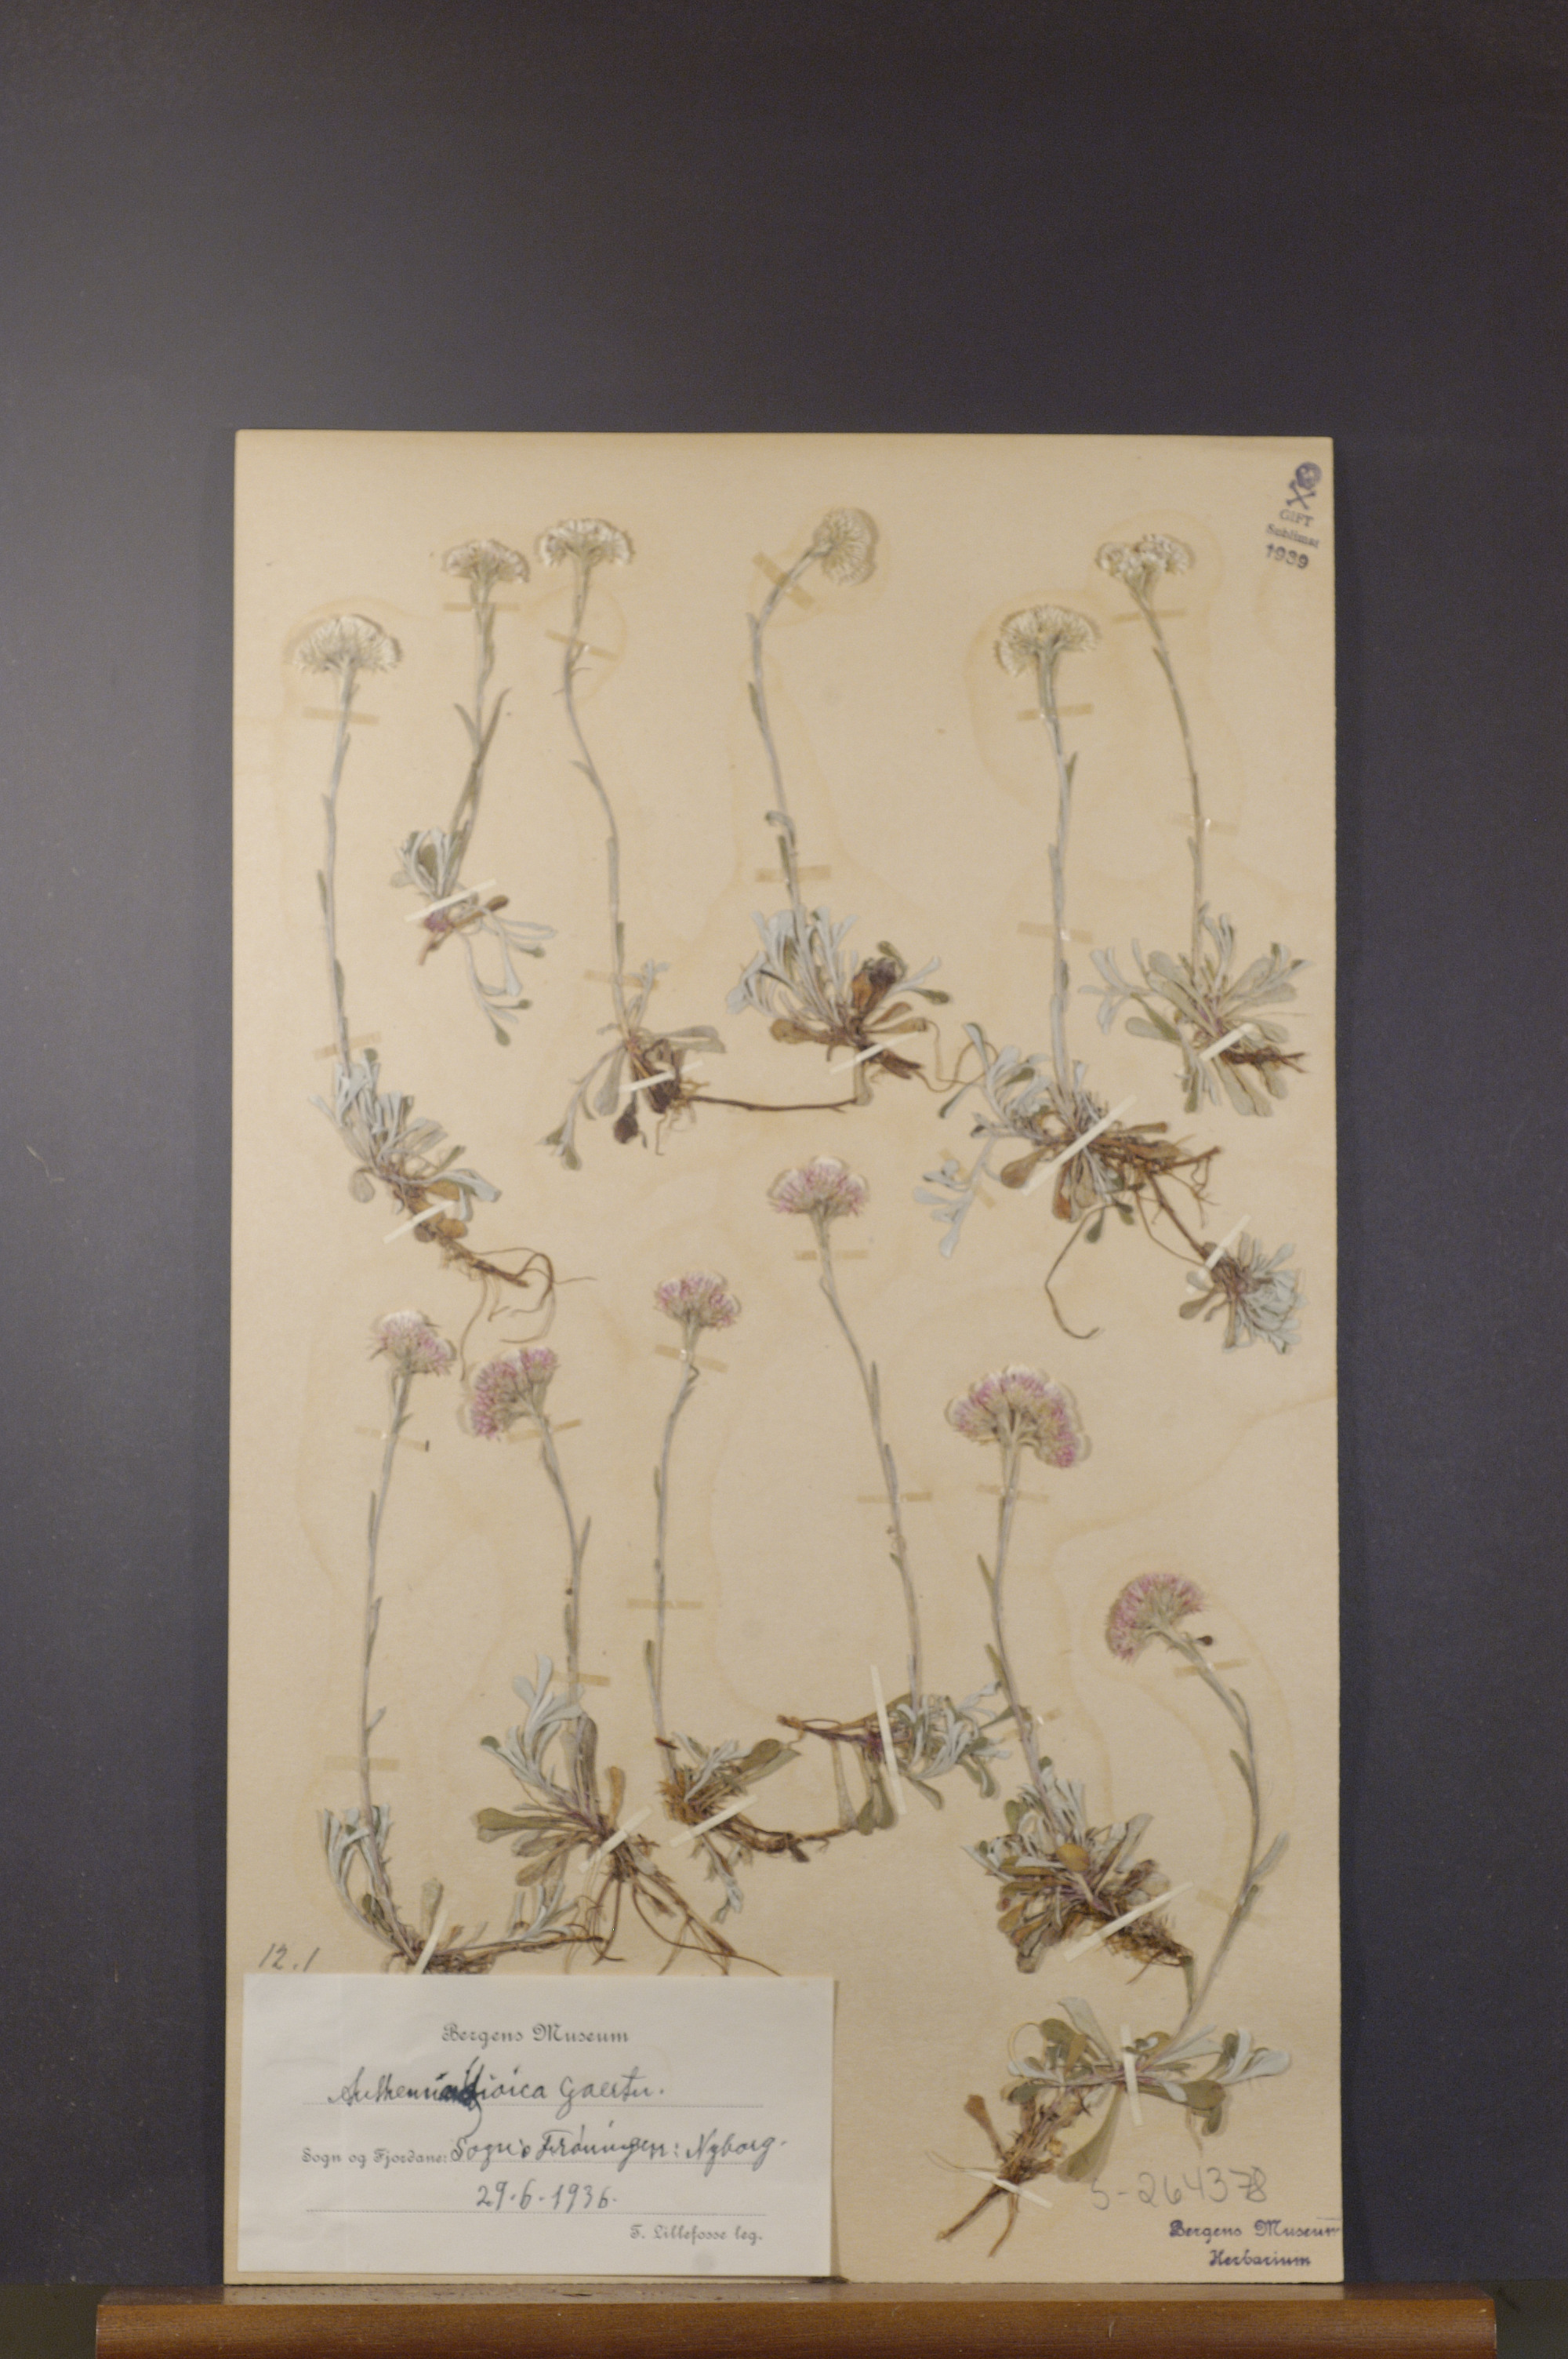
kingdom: Plantae
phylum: Tracheophyta
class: Magnoliopsida
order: Asterales
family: Asteraceae
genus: Antennaria
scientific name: Antennaria dioica
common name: Mountain everlasting
